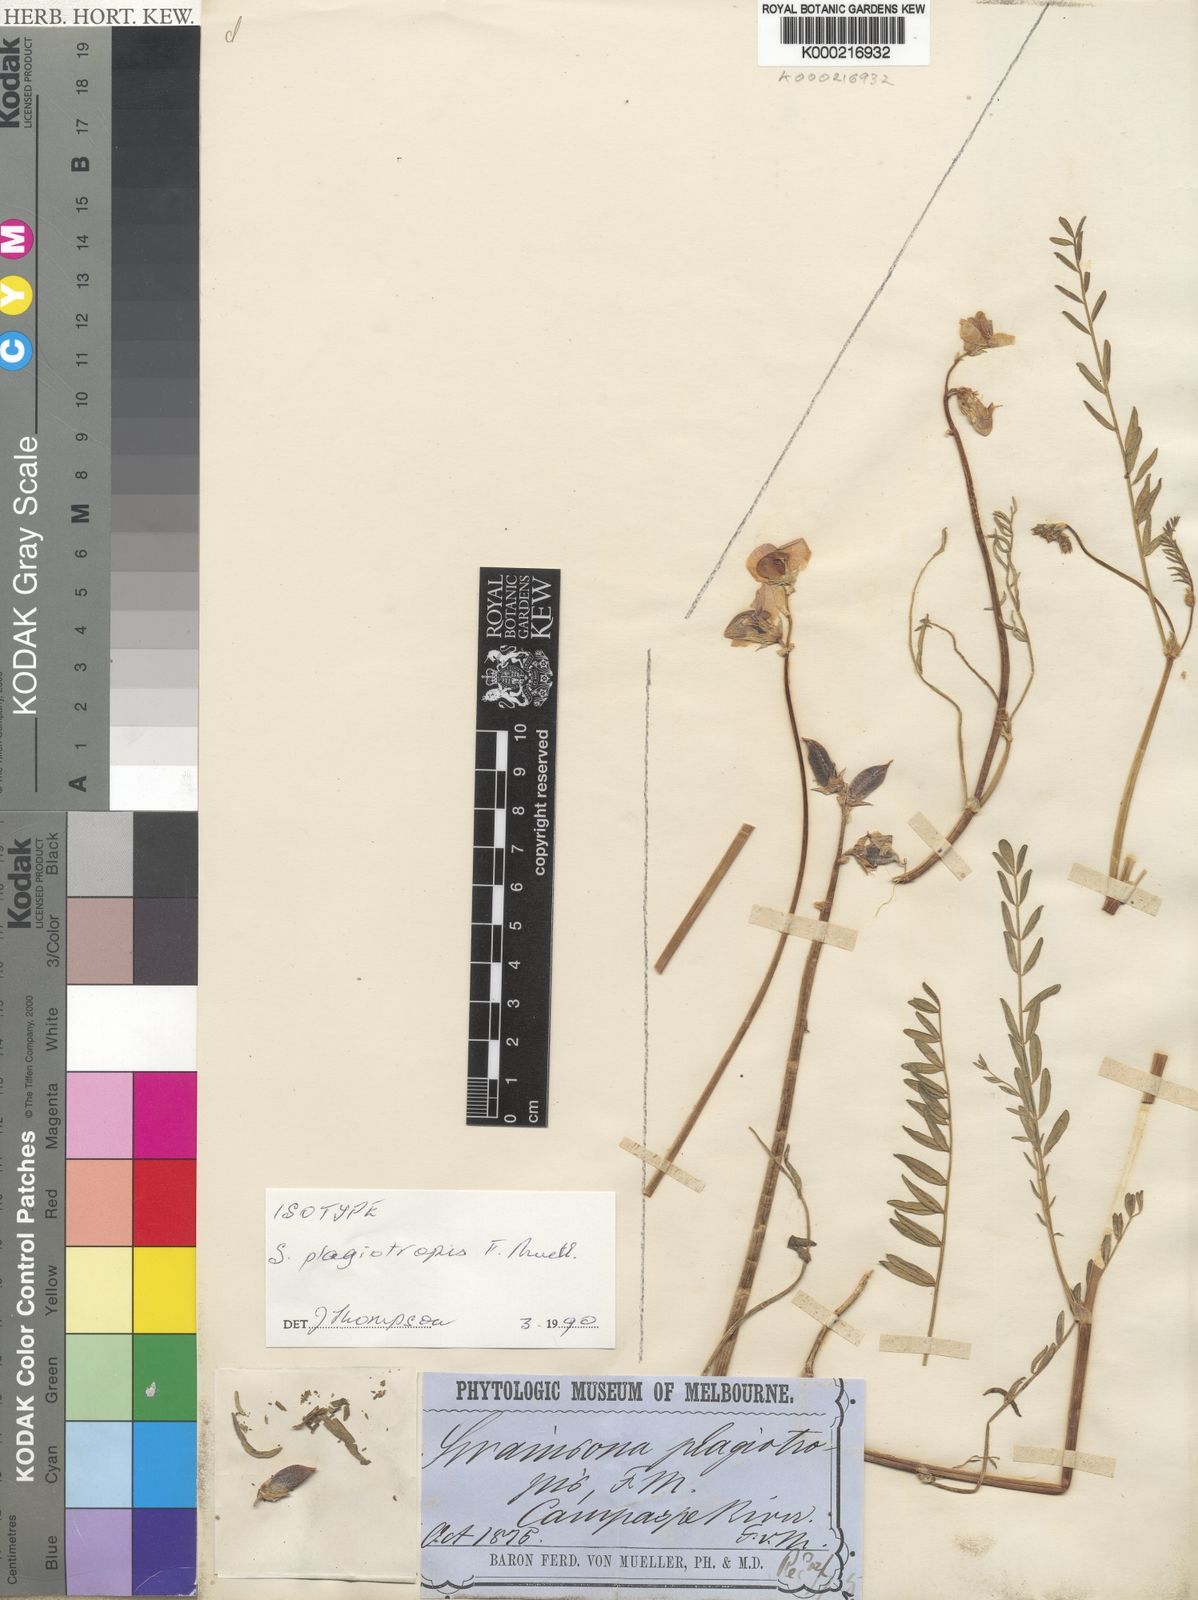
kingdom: Plantae
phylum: Tracheophyta
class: Magnoliopsida
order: Fabales
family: Fabaceae
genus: Swainsona
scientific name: Swainsona plagiotropis
